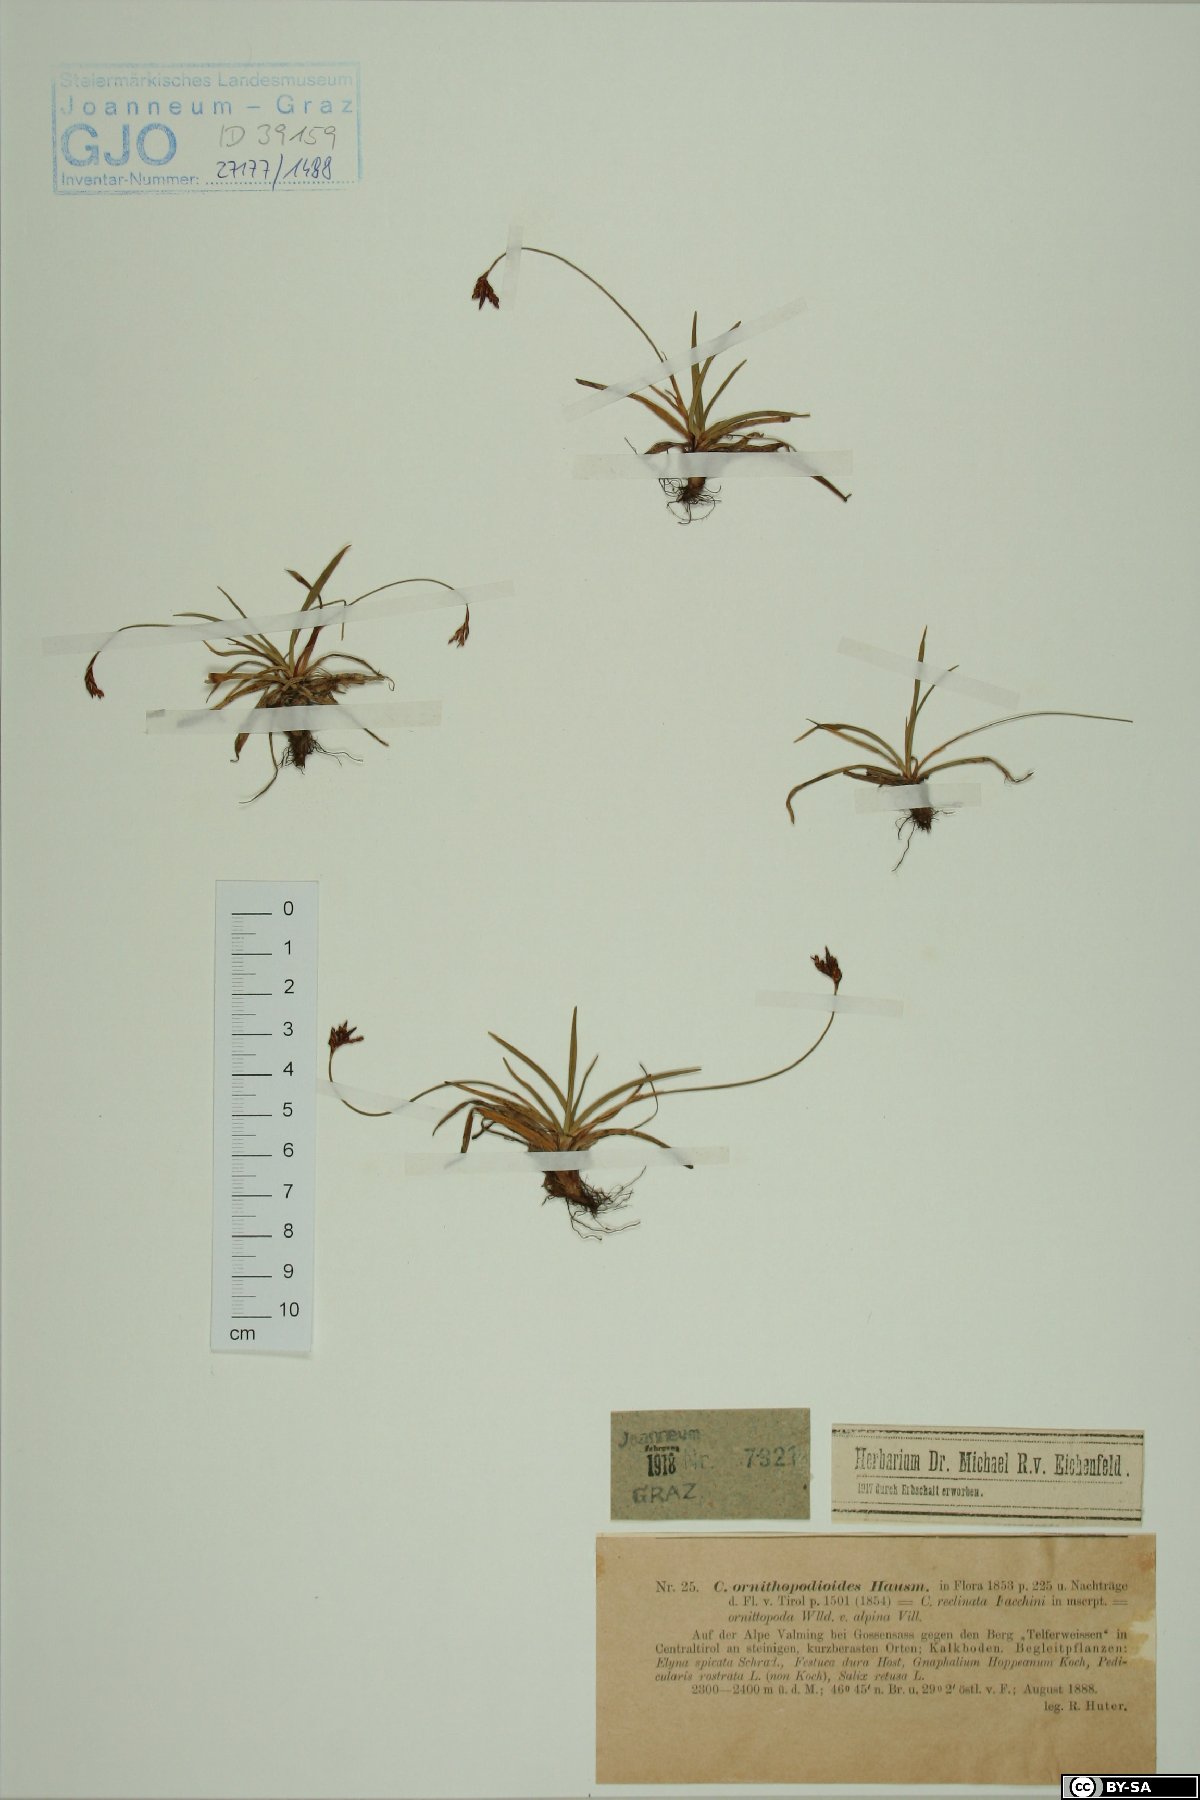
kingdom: Plantae
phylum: Tracheophyta
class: Liliopsida
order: Poales
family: Cyperaceae
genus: Carex
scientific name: Carex ornithopoda
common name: Bird's-foot sedge
